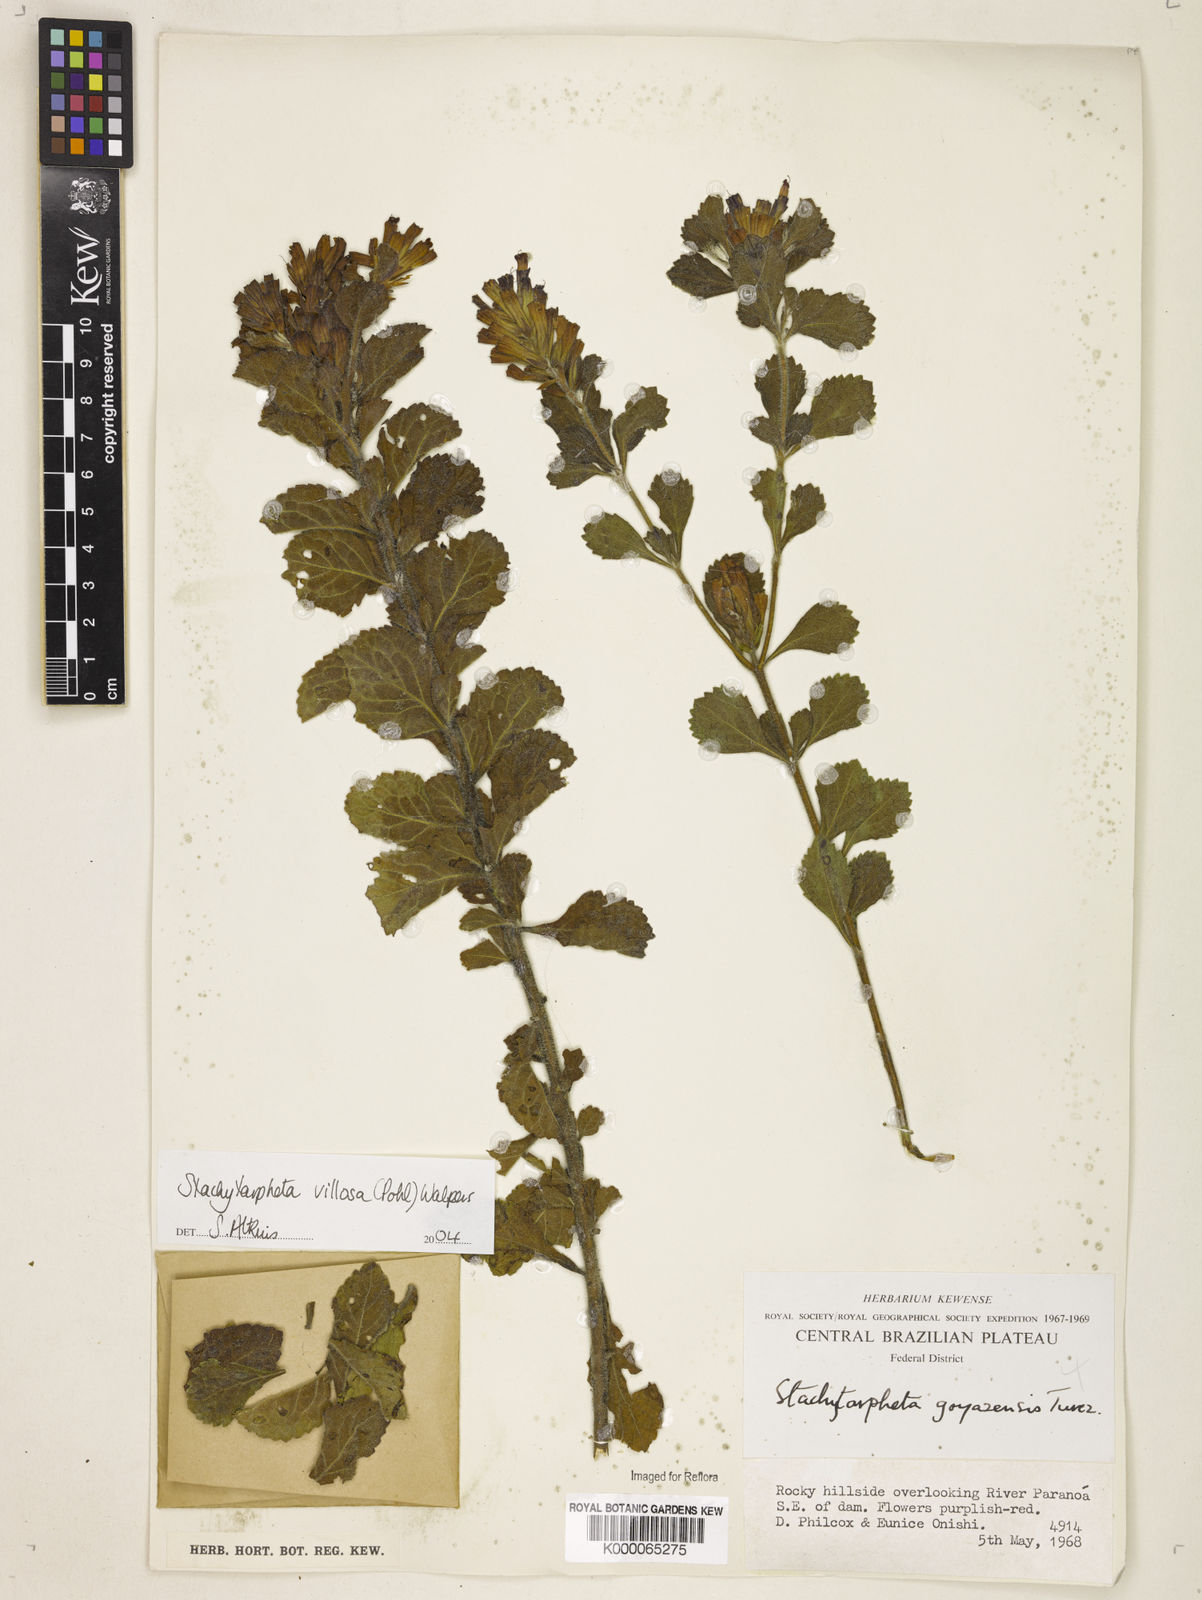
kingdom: Plantae
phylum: Tracheophyta
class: Magnoliopsida
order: Lamiales
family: Verbenaceae
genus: Stachytarpheta
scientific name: Stachytarpheta villosa
